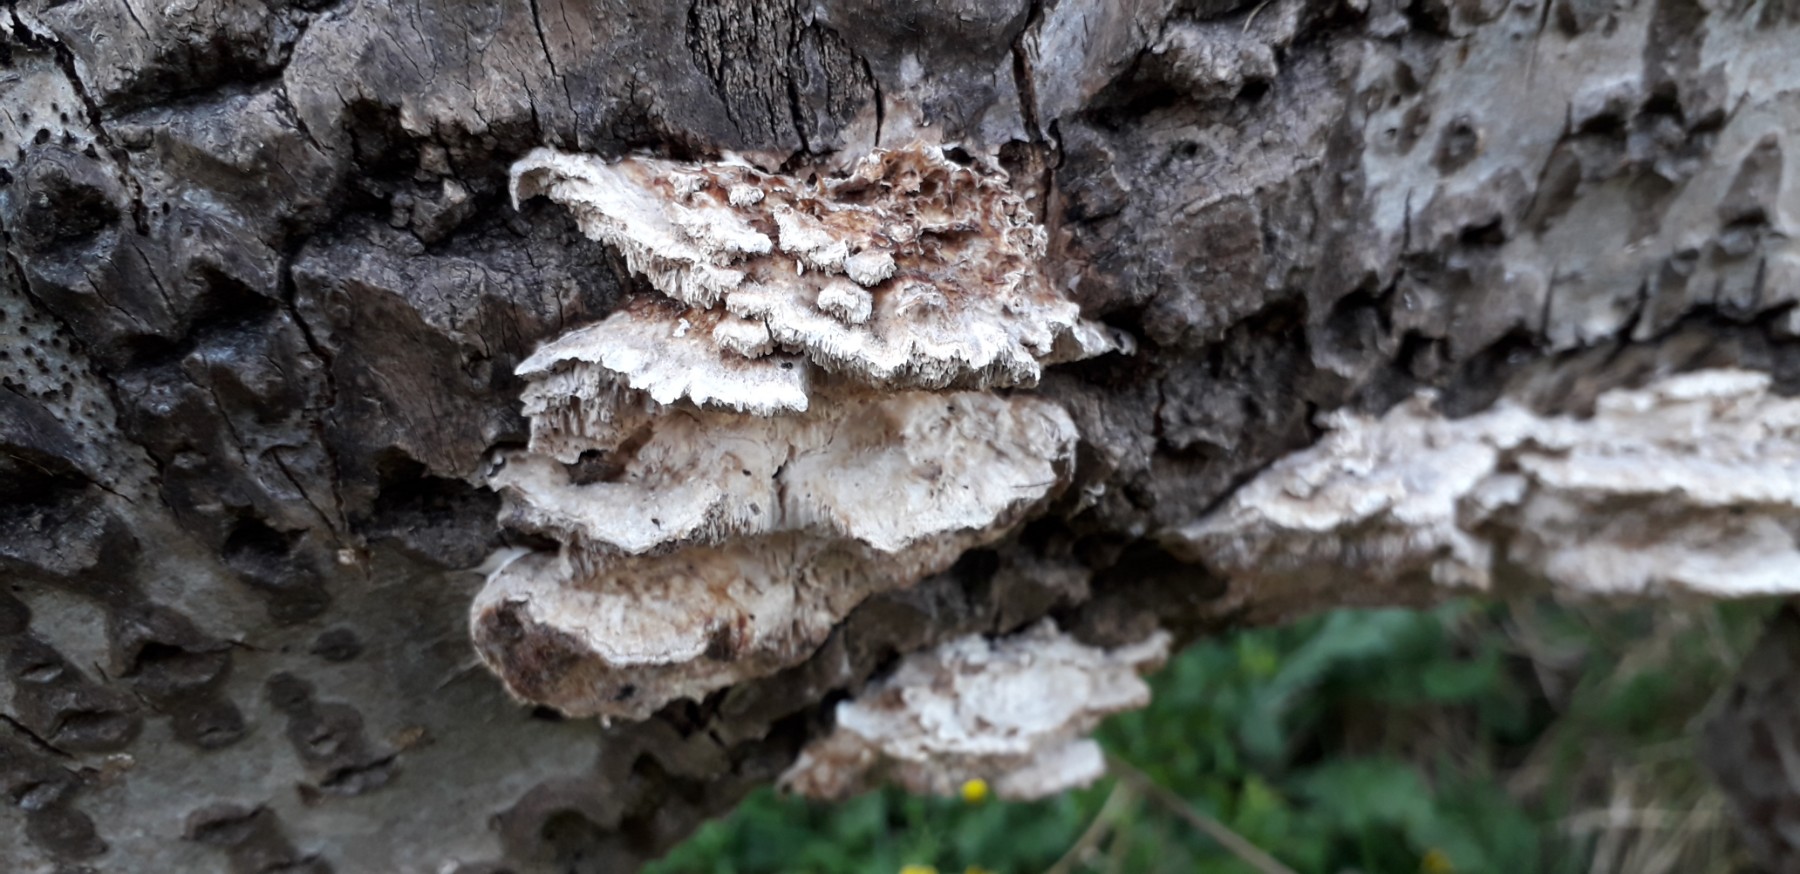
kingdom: Fungi
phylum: Basidiomycota
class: Agaricomycetes
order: Polyporales
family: Polyporaceae
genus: Trametes
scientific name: Trametes ochracea
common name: bæltet læderporesvamp
